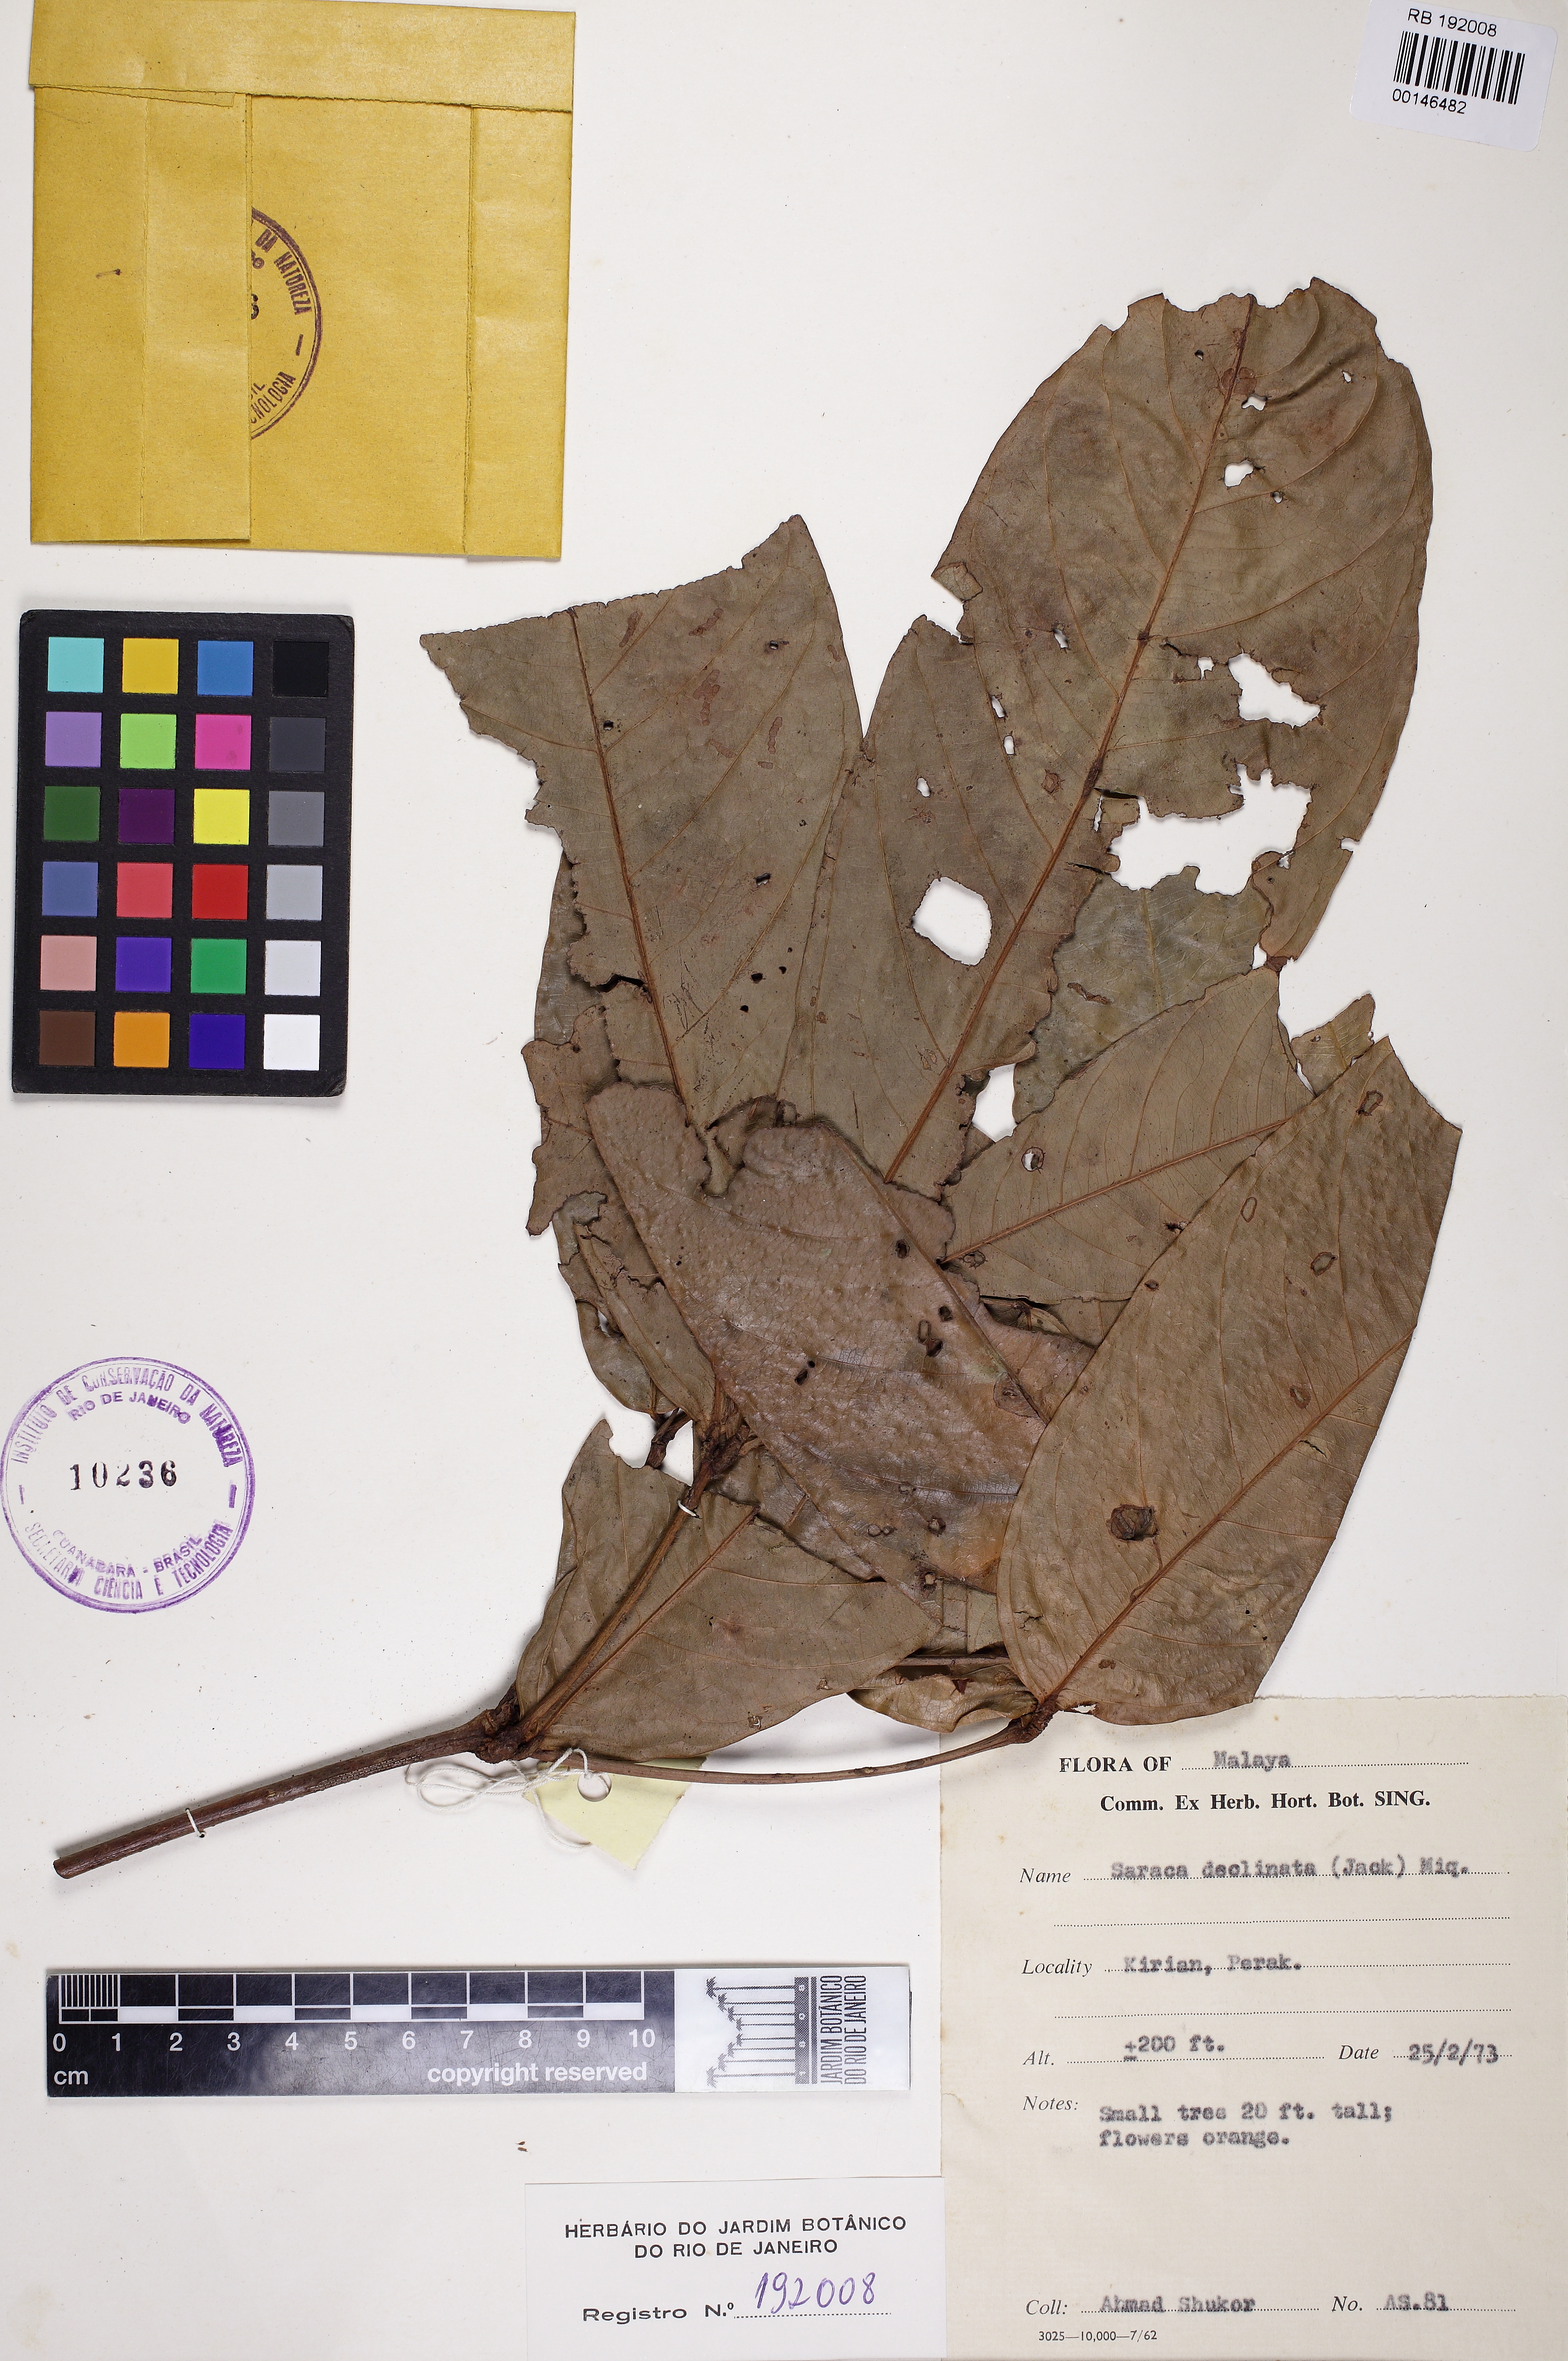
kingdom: Plantae
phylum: Tracheophyta
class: Magnoliopsida
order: Fabales
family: Fabaceae
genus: Saraca
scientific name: Saraca declinata
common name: Red saraca
